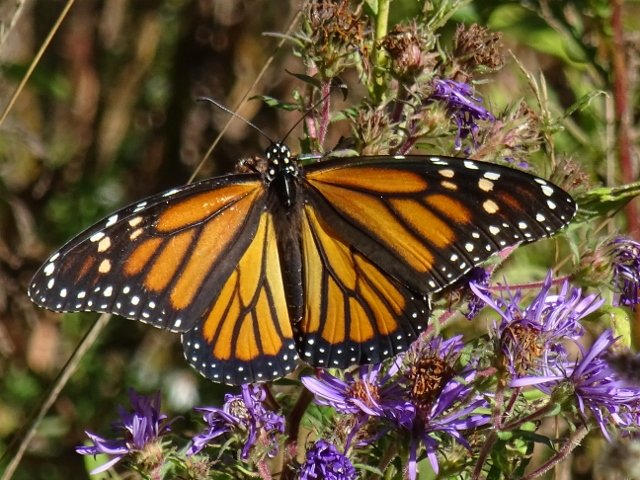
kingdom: Animalia
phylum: Arthropoda
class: Insecta
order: Lepidoptera
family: Nymphalidae
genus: Danaus
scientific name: Danaus plexippus
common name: Monarch
